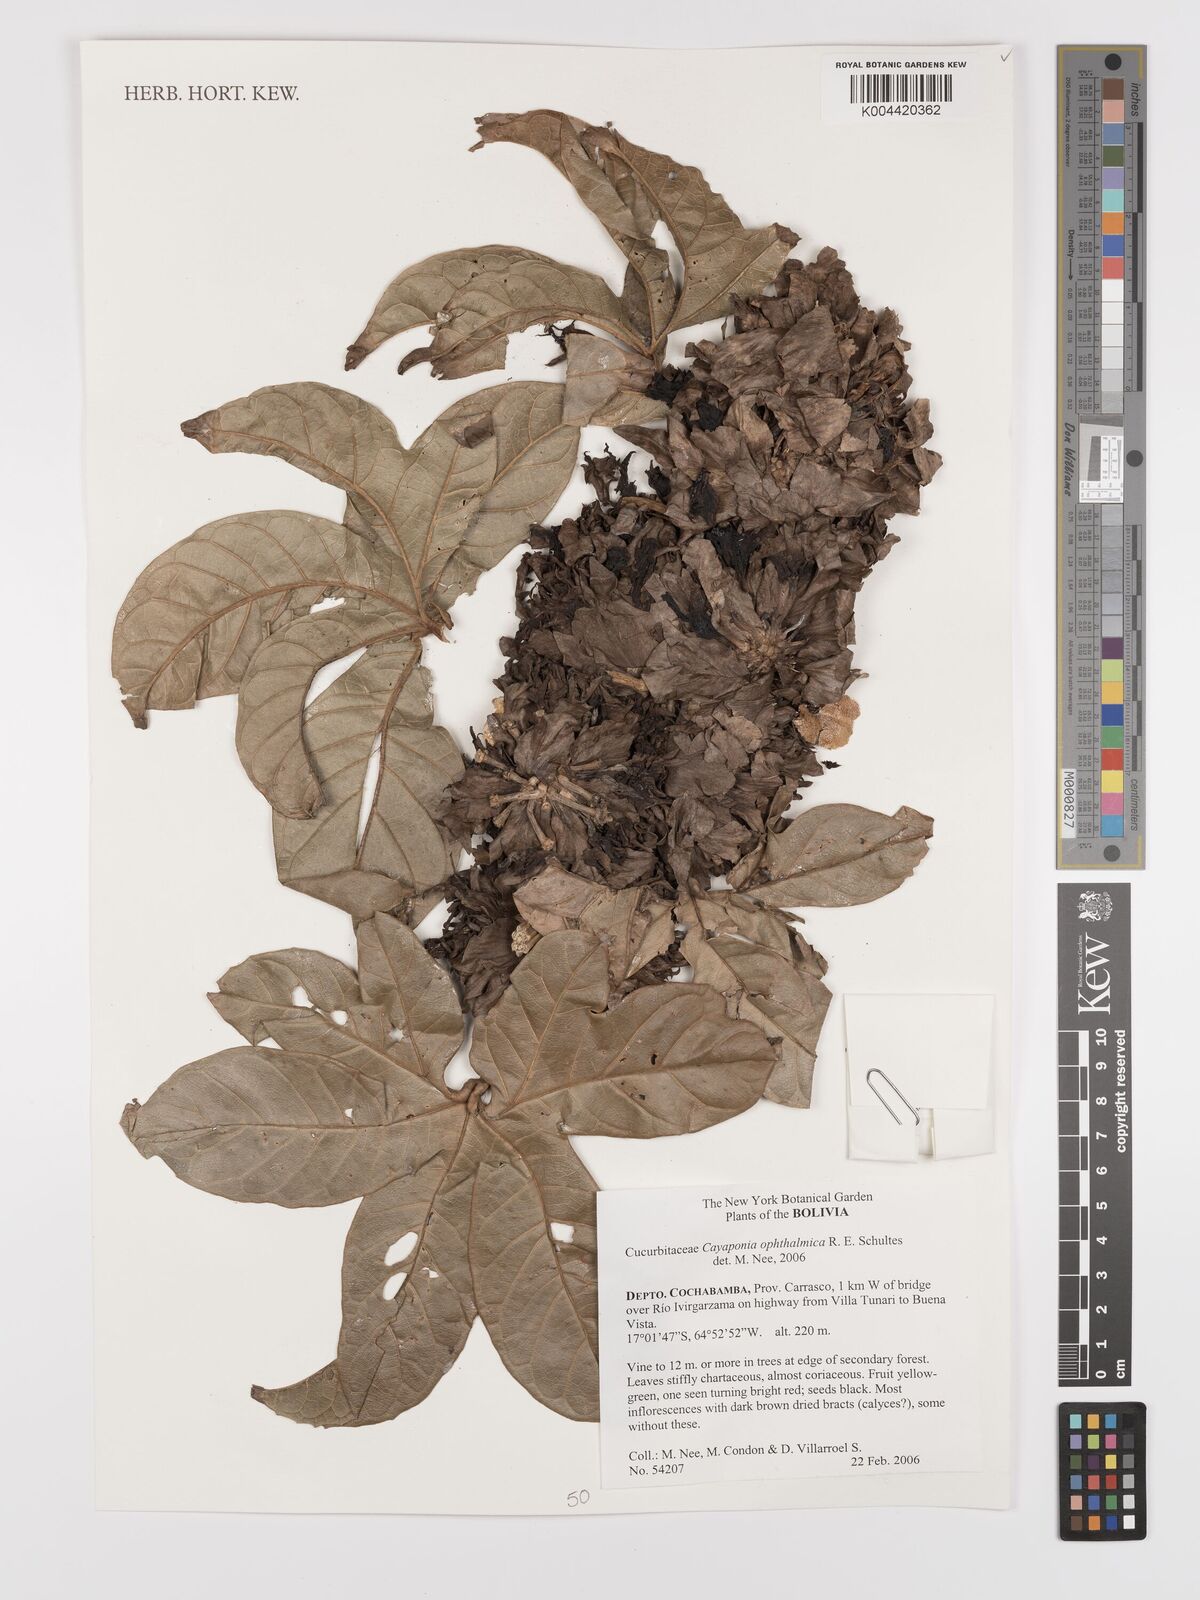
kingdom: Plantae
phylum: Tracheophyta
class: Magnoliopsida
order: Cucurbitales
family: Cucurbitaceae
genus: Cayaponia
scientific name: Cayaponia ophthalmica
